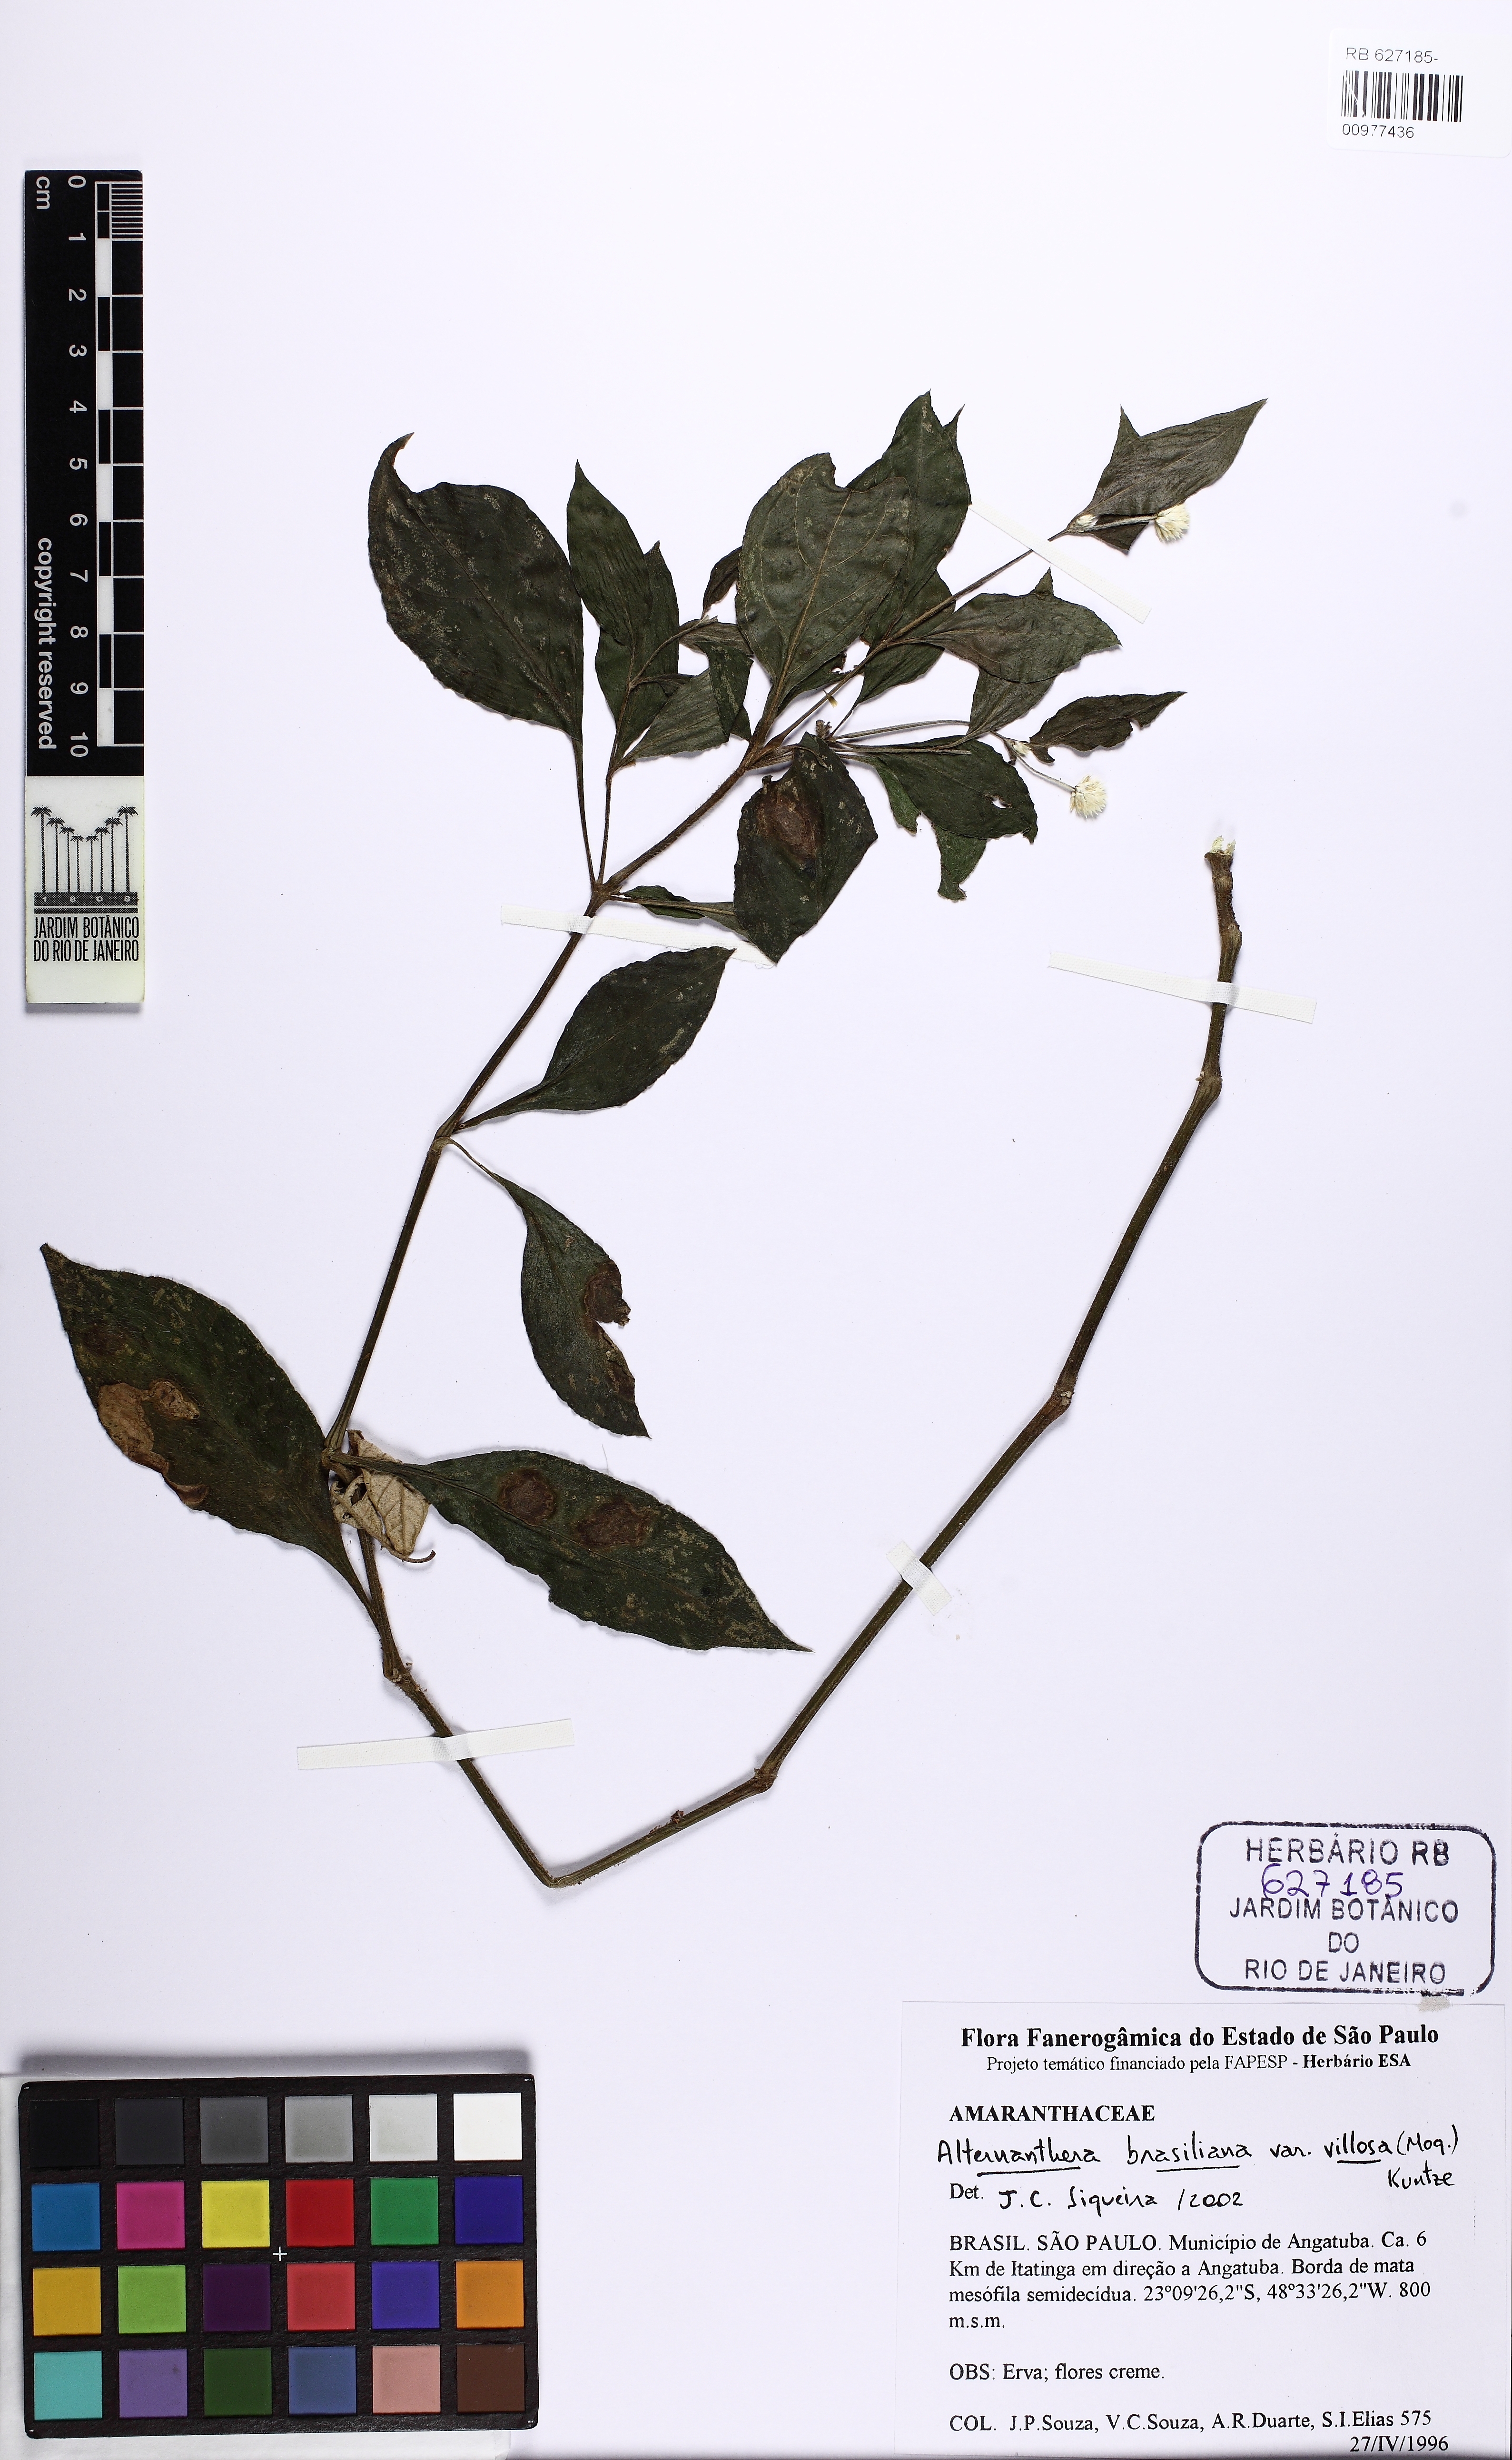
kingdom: Plantae
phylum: Tracheophyta
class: Magnoliopsida
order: Caryophyllales
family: Amaranthaceae
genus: Alternanthera
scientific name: Alternanthera ramosissima
